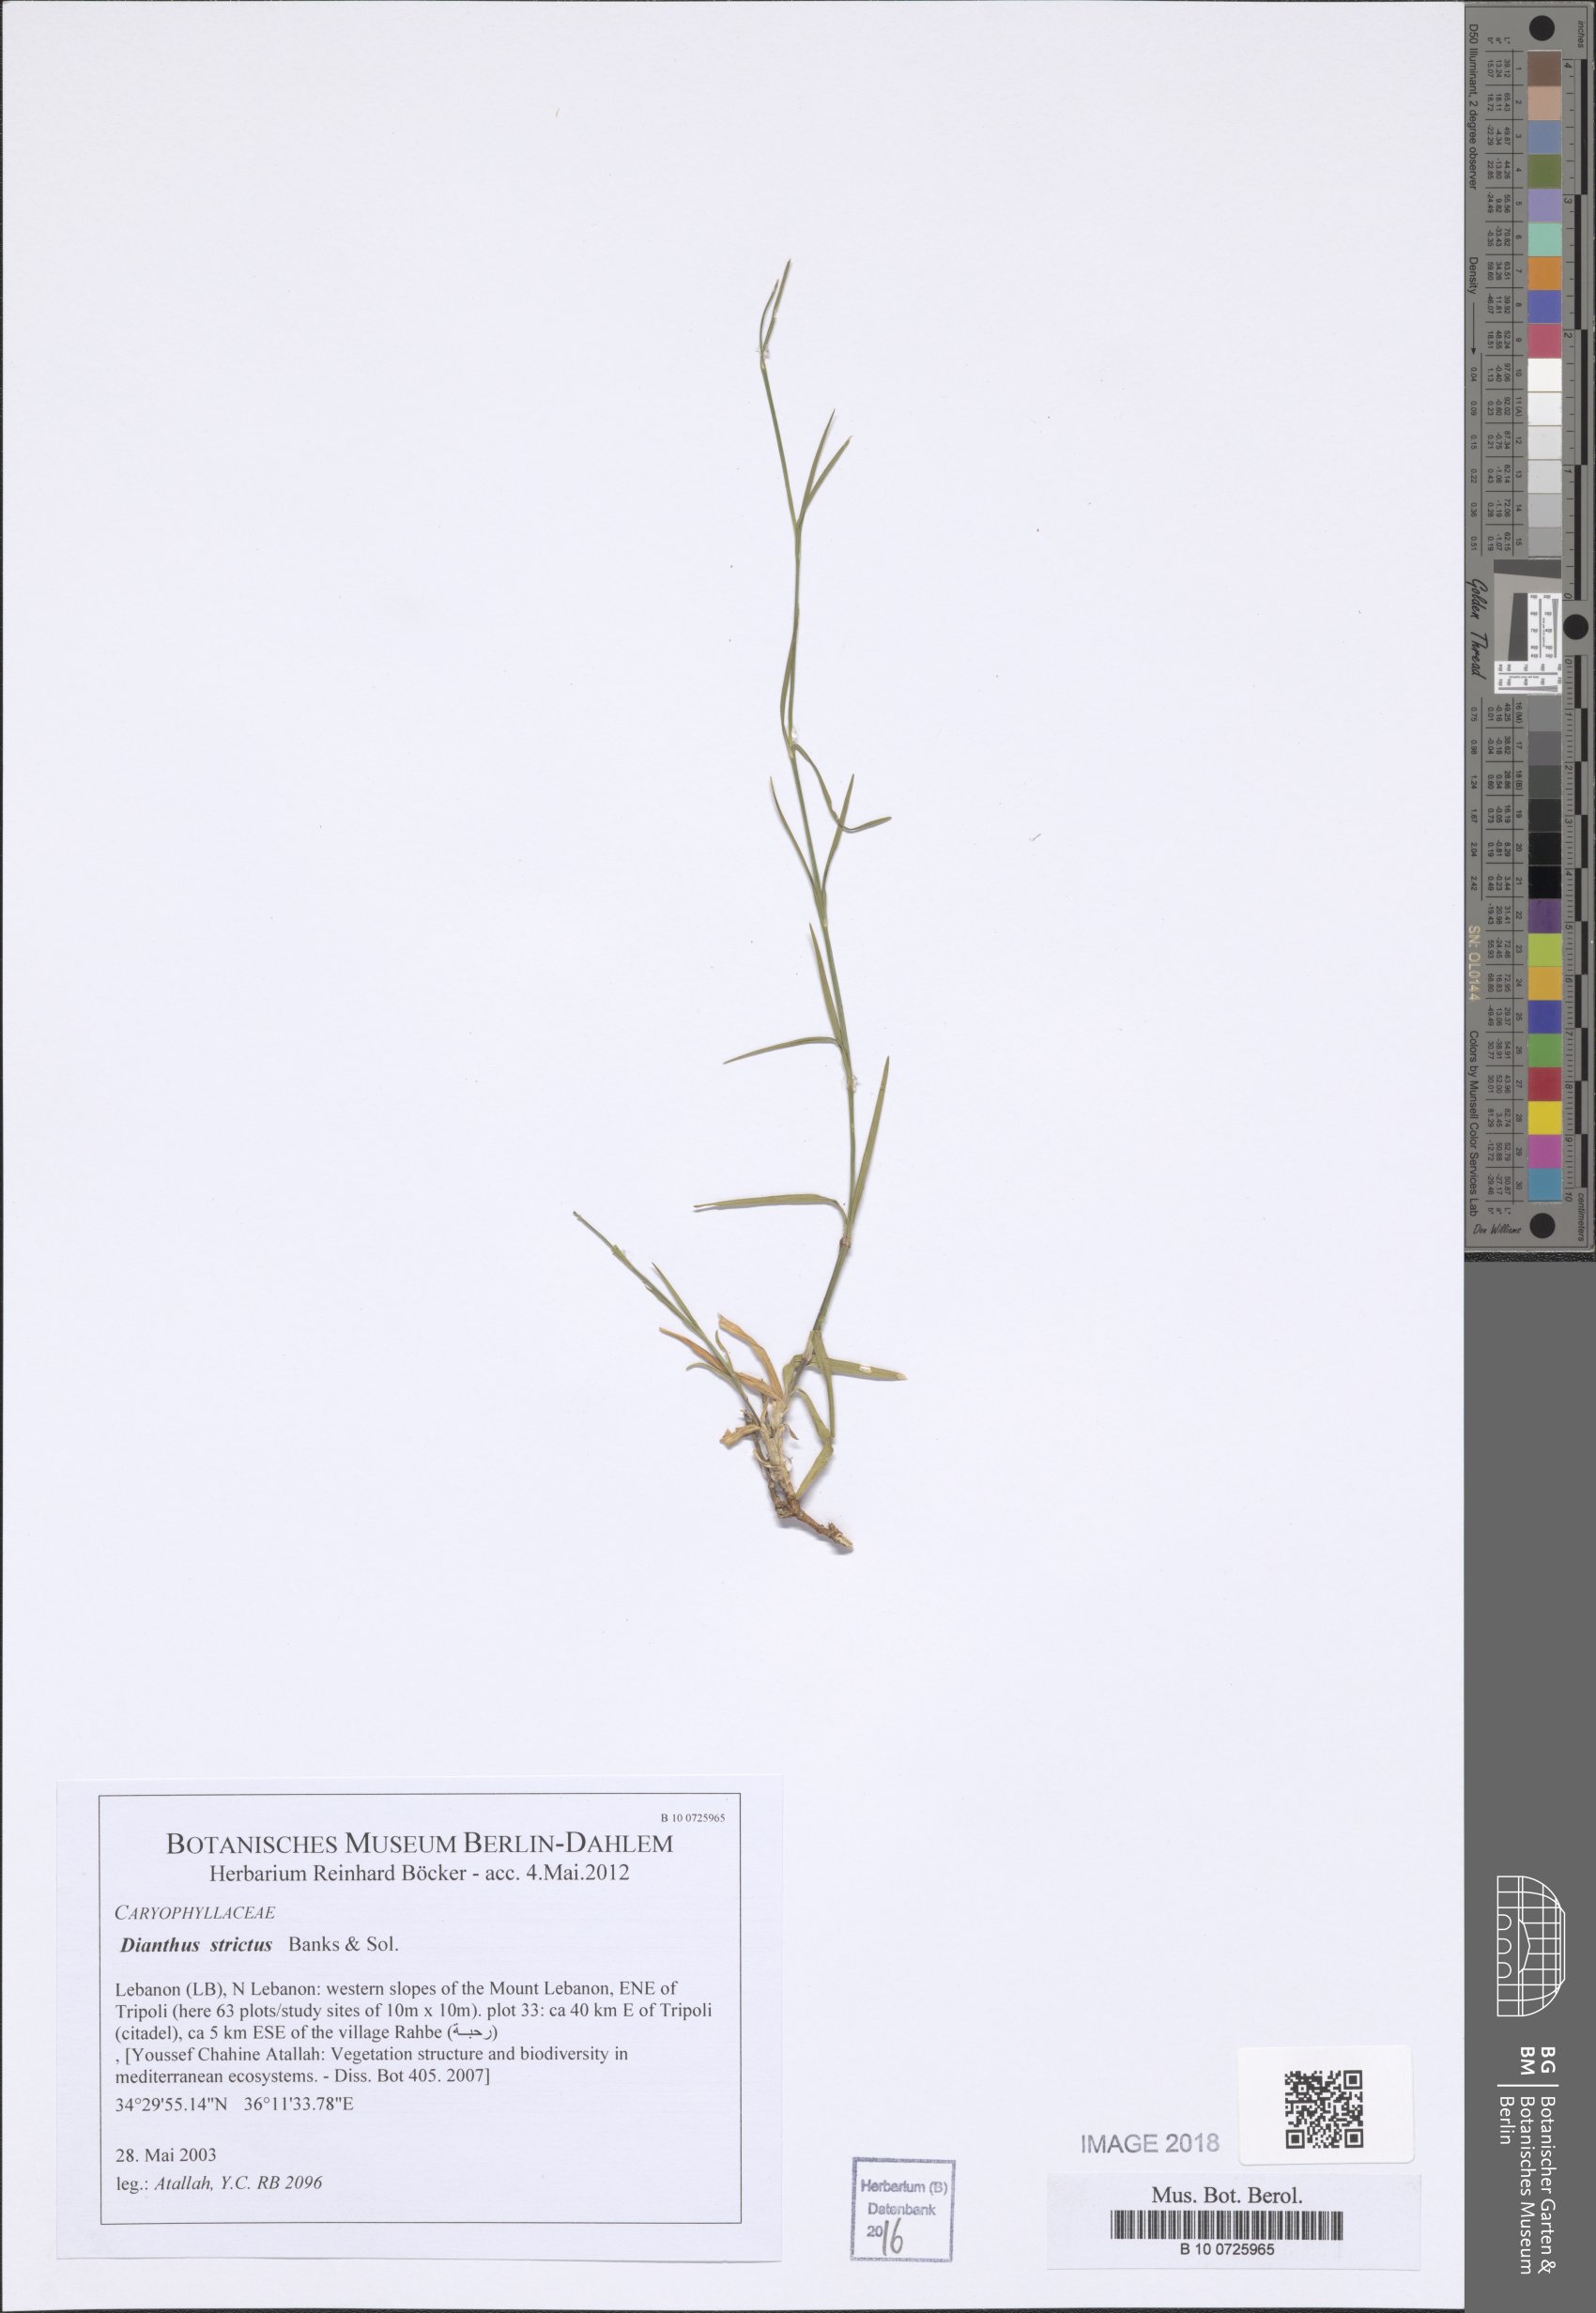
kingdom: Plantae
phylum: Tracheophyta
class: Magnoliopsida
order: Caryophyllales
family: Caryophyllaceae
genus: Dianthus
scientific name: Dianthus strictus
